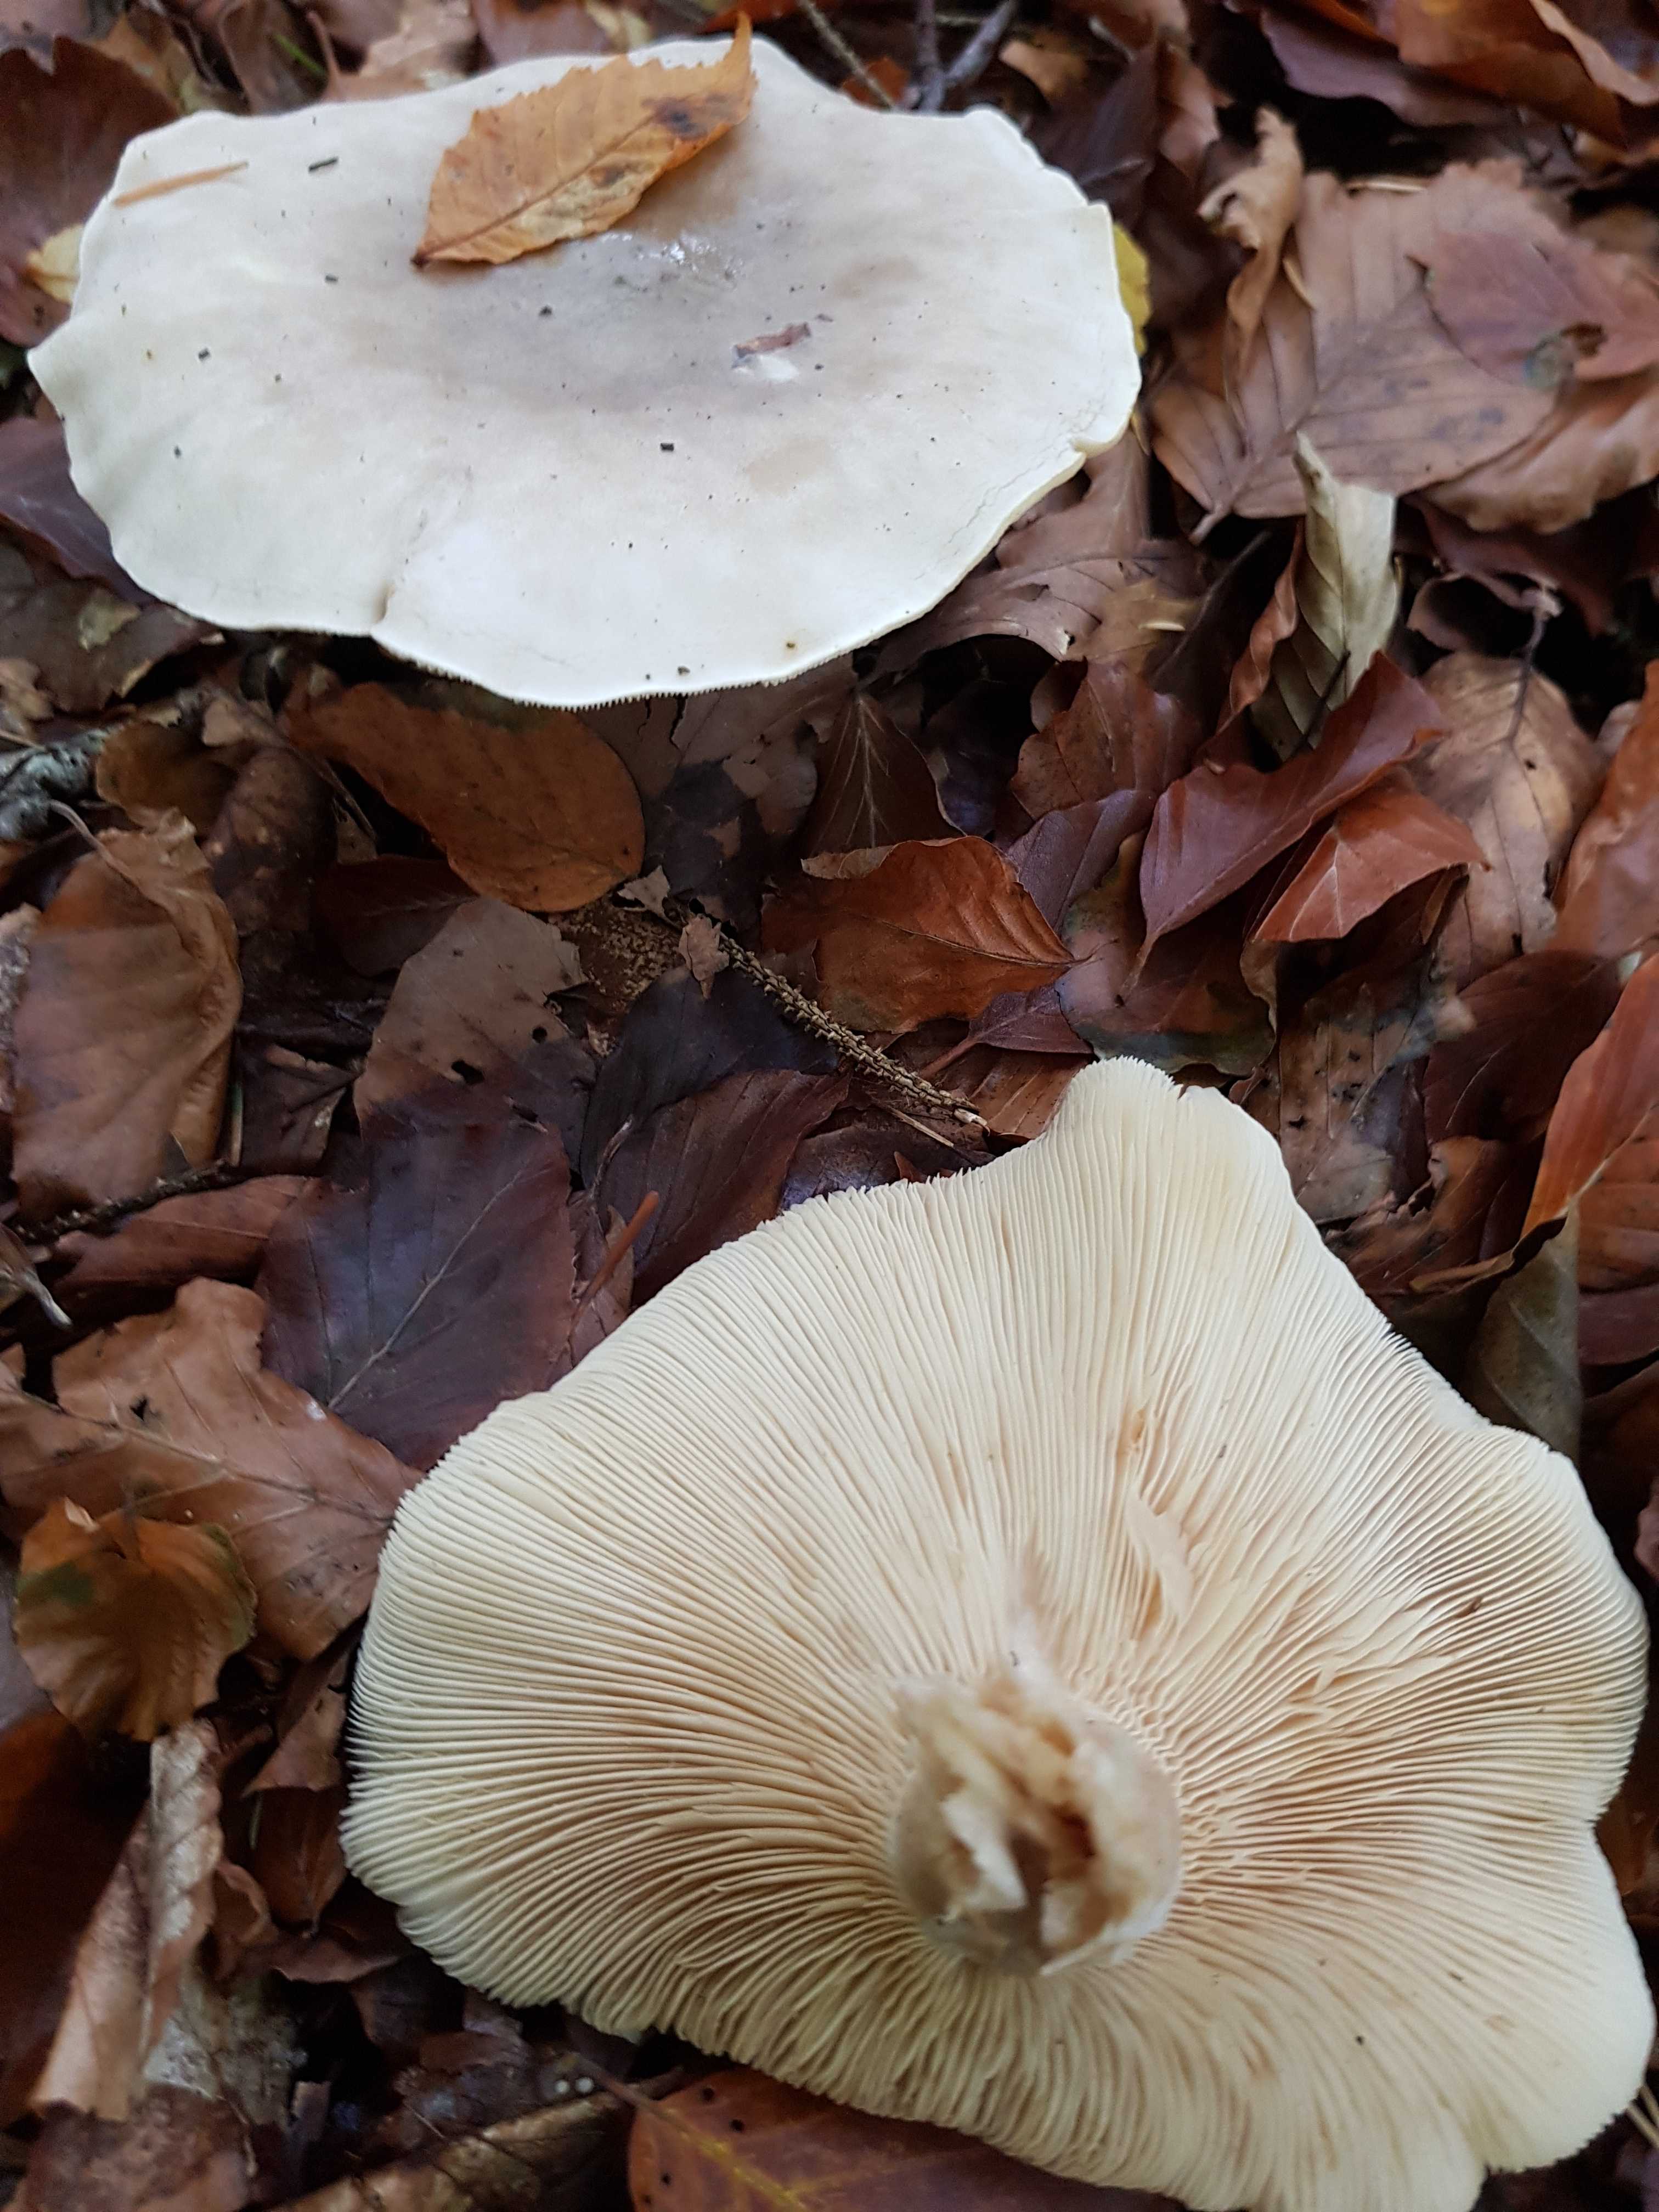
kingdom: Fungi
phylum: Basidiomycota
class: Agaricomycetes
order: Agaricales
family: Tricholomataceae
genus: Clitocybe
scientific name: Clitocybe nebularis
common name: tåge-tragthat
